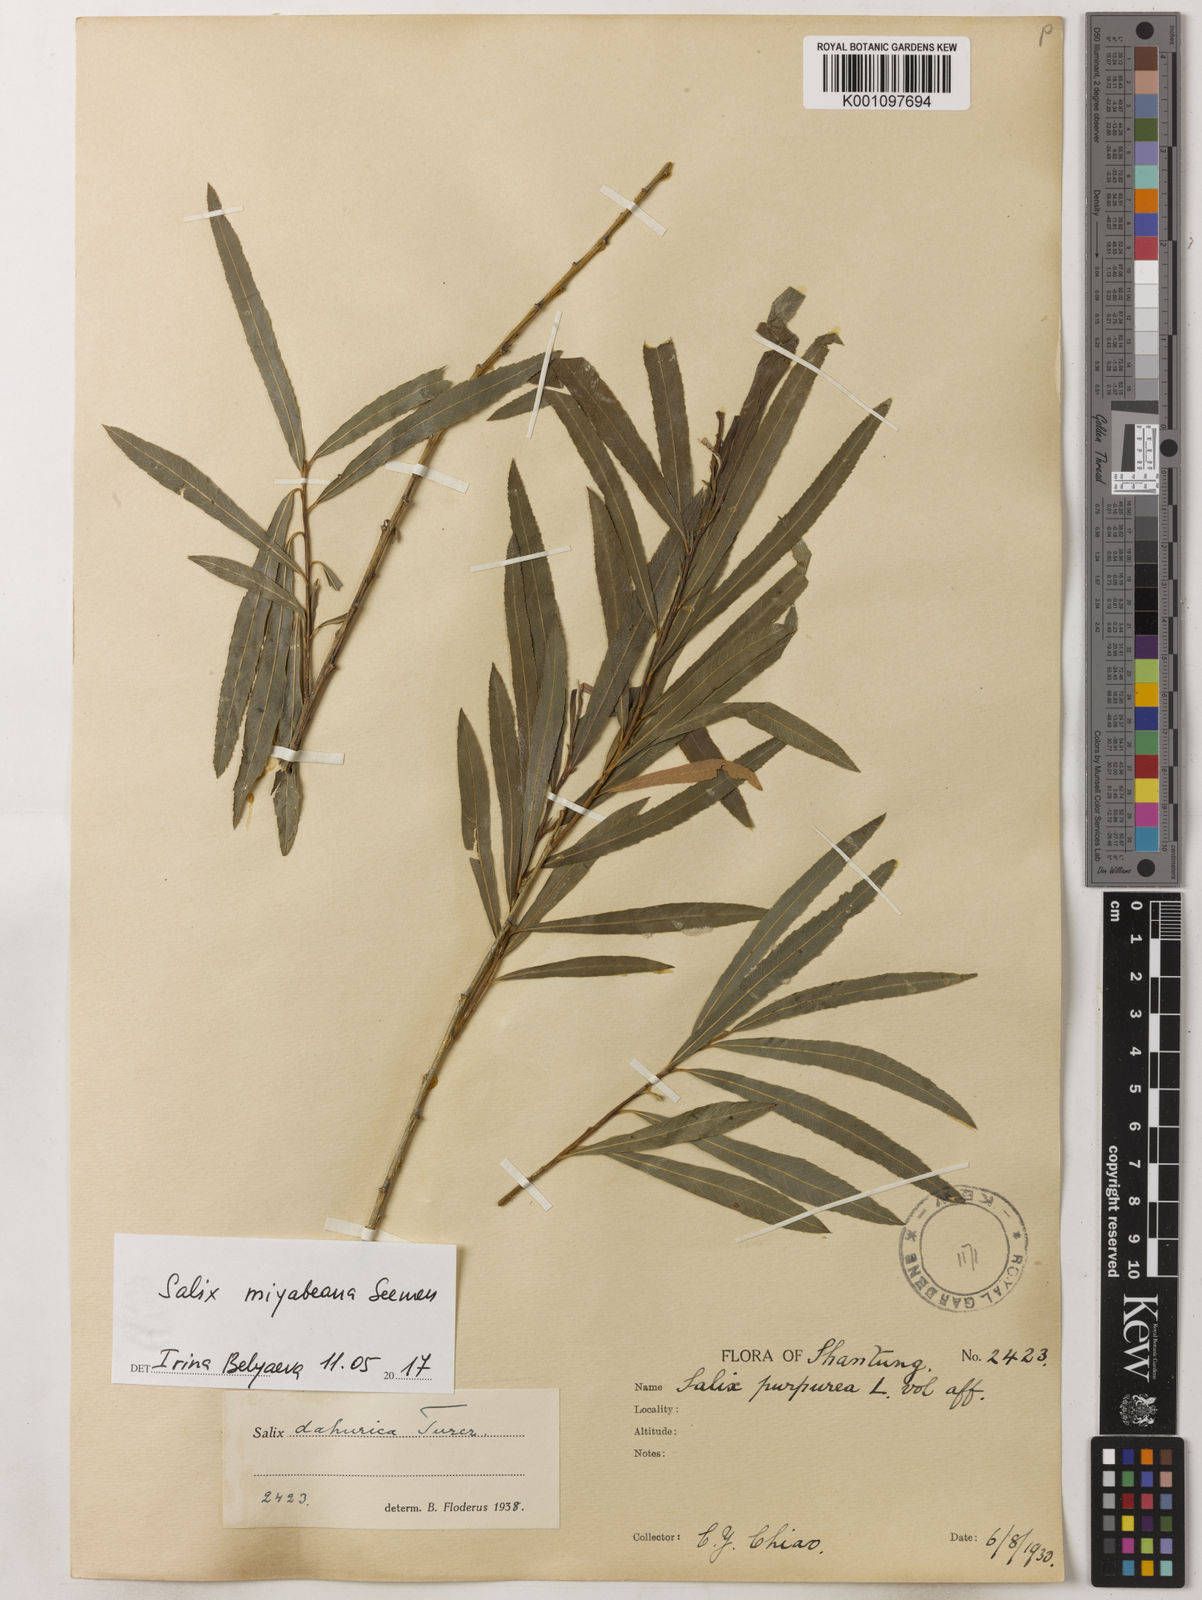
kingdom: Plantae
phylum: Tracheophyta
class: Magnoliopsida
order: Malpighiales
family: Salicaceae
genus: Salix
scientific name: Salix miyabeana
